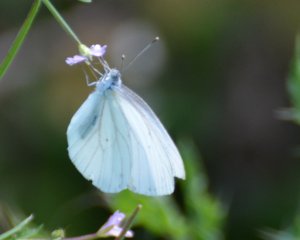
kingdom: Animalia
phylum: Arthropoda
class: Insecta
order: Lepidoptera
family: Pieridae
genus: Pieris
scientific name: Pieris oleracea
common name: Mustard White
